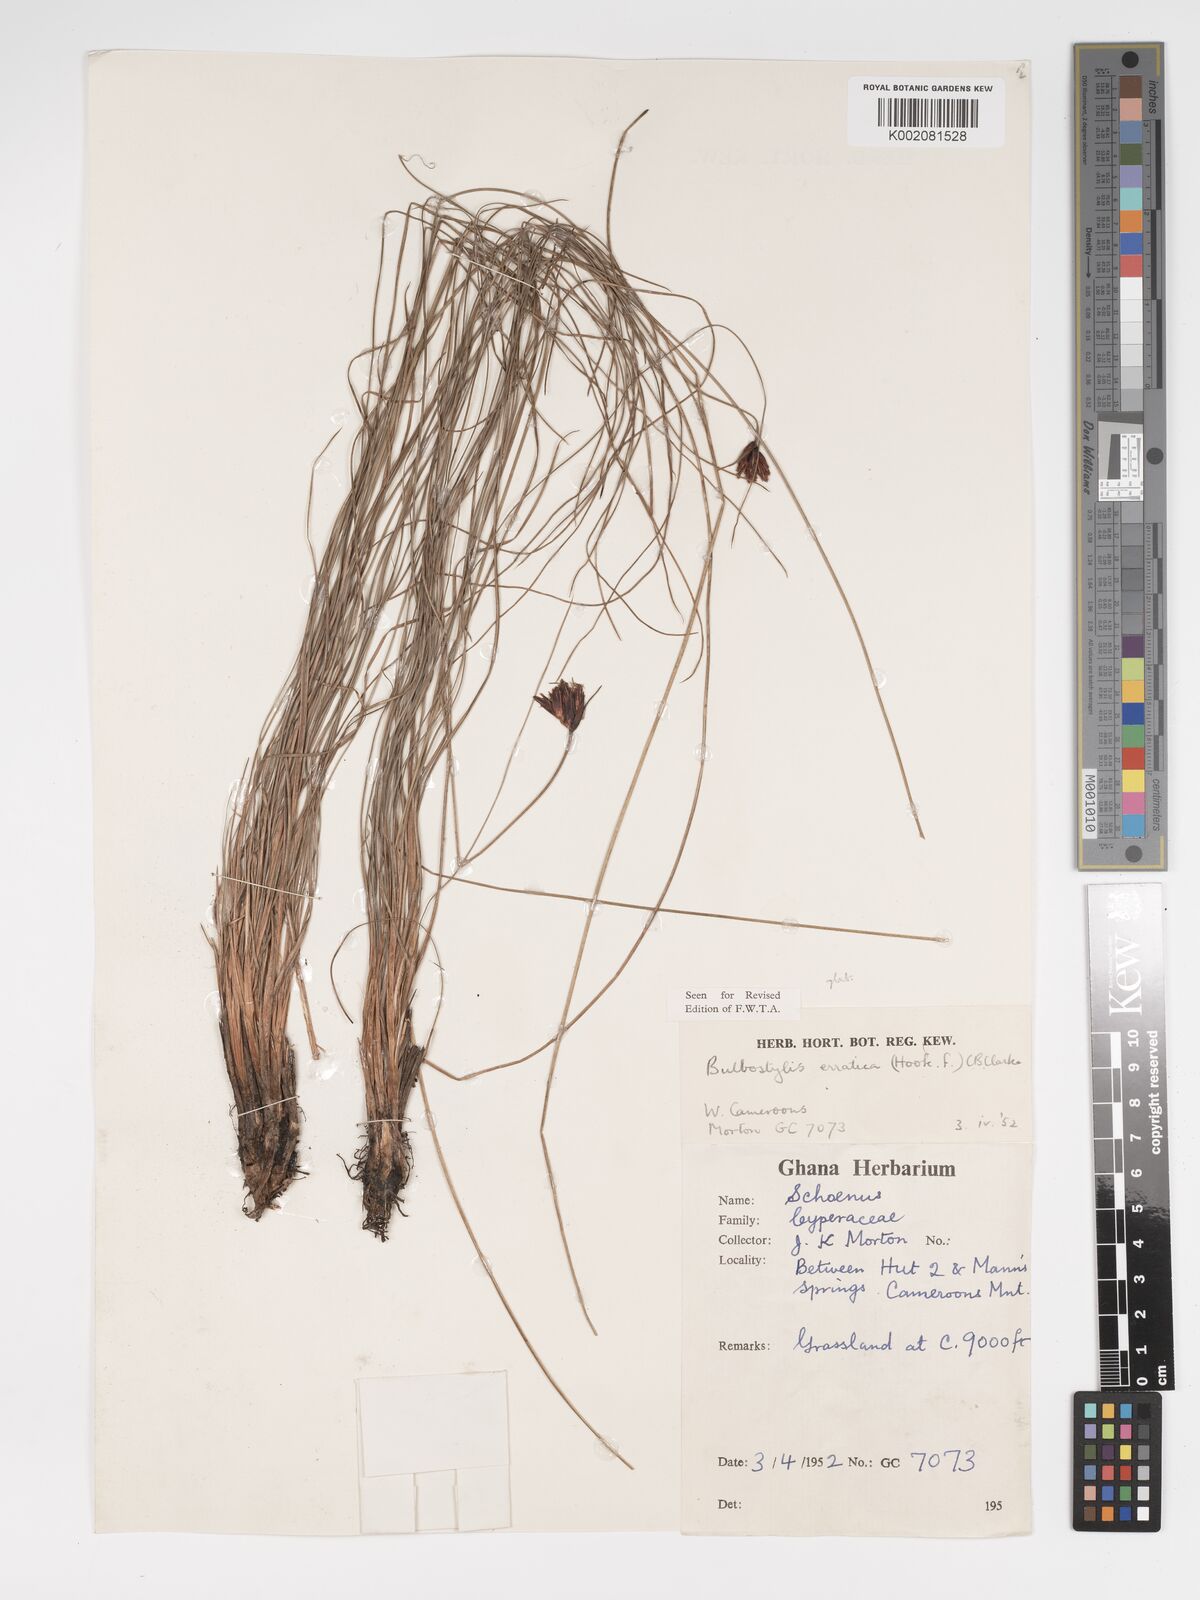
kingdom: Plantae
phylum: Tracheophyta
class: Liliopsida
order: Poales
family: Cyperaceae
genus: Bulbostylis
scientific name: Bulbostylis schoenoides
